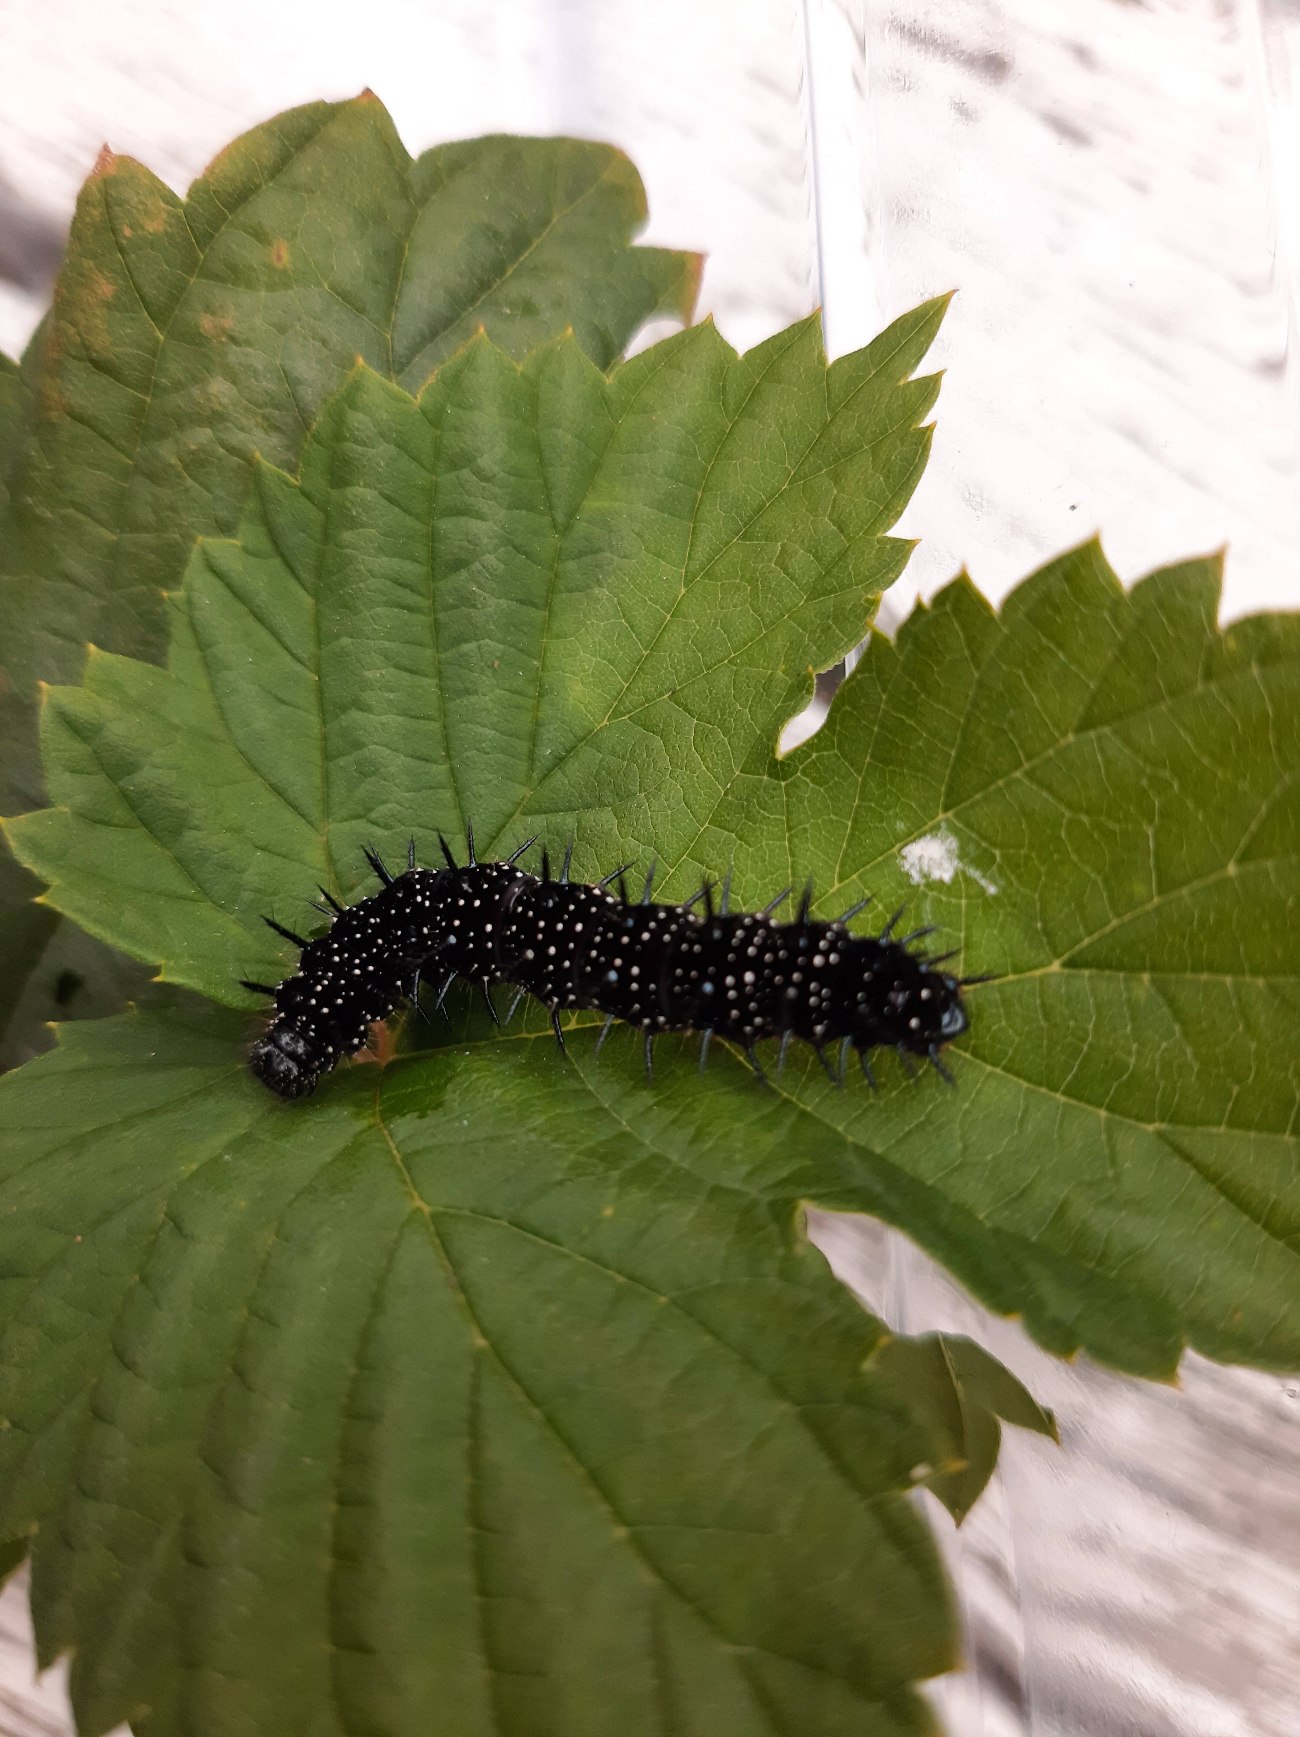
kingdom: Animalia
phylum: Arthropoda
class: Insecta
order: Lepidoptera
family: Nymphalidae
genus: Aglais
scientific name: Aglais io
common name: Dagpåfugleøje
